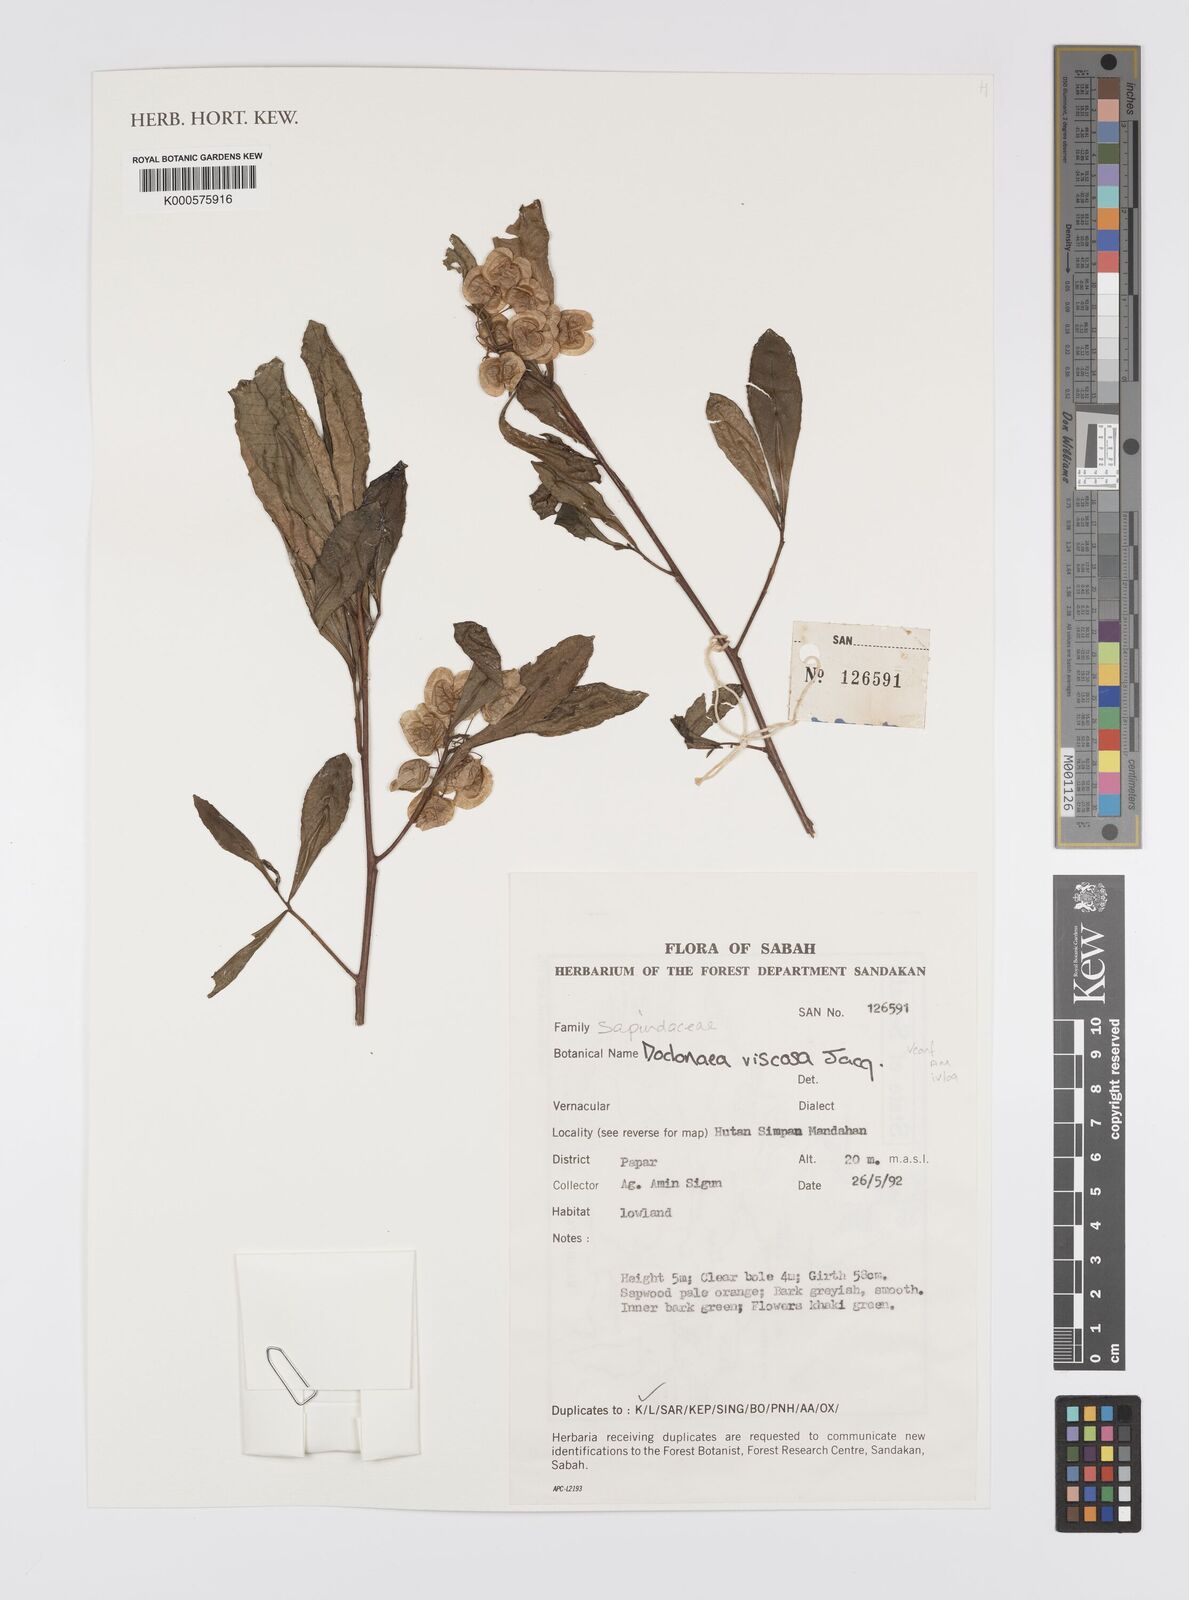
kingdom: Plantae
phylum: Tracheophyta
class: Magnoliopsida
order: Sapindales
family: Sapindaceae
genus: Dodonaea
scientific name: Dodonaea viscosa
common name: Hopbush
